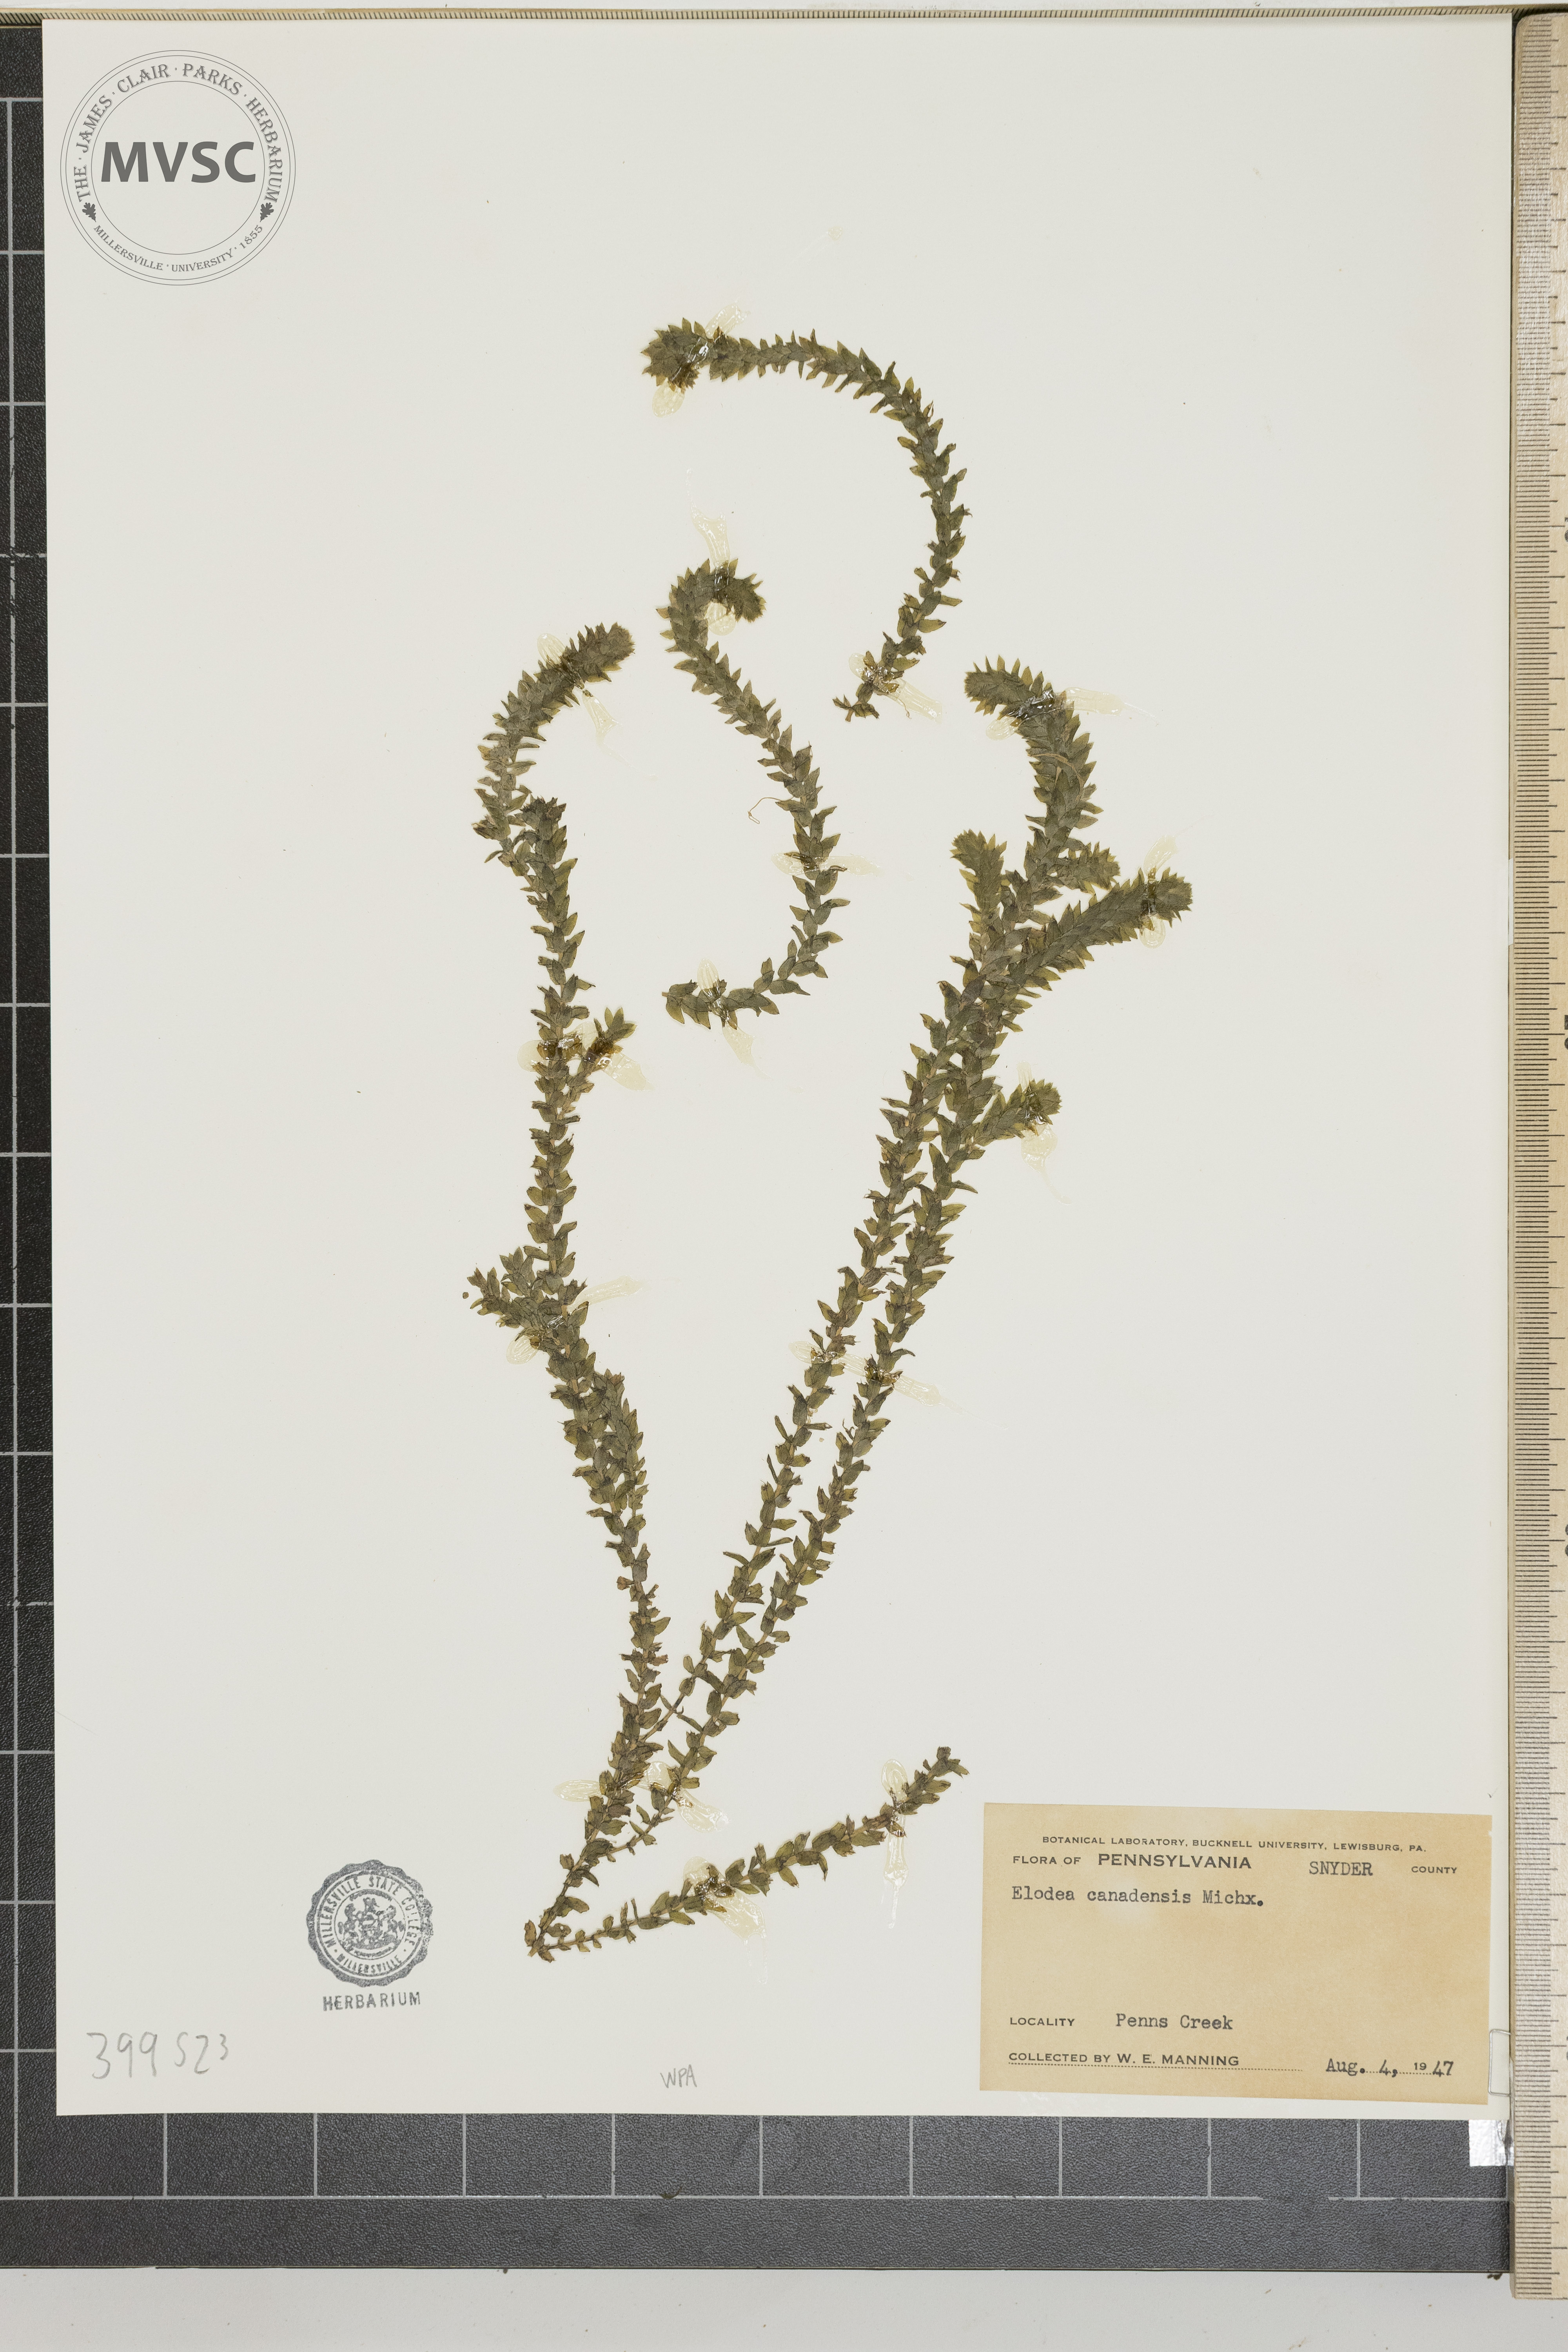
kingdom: Plantae
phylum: Tracheophyta
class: Liliopsida
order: Alismatales
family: Hydrocharitaceae
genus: Elodea
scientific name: Elodea canadensis
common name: waterweed
